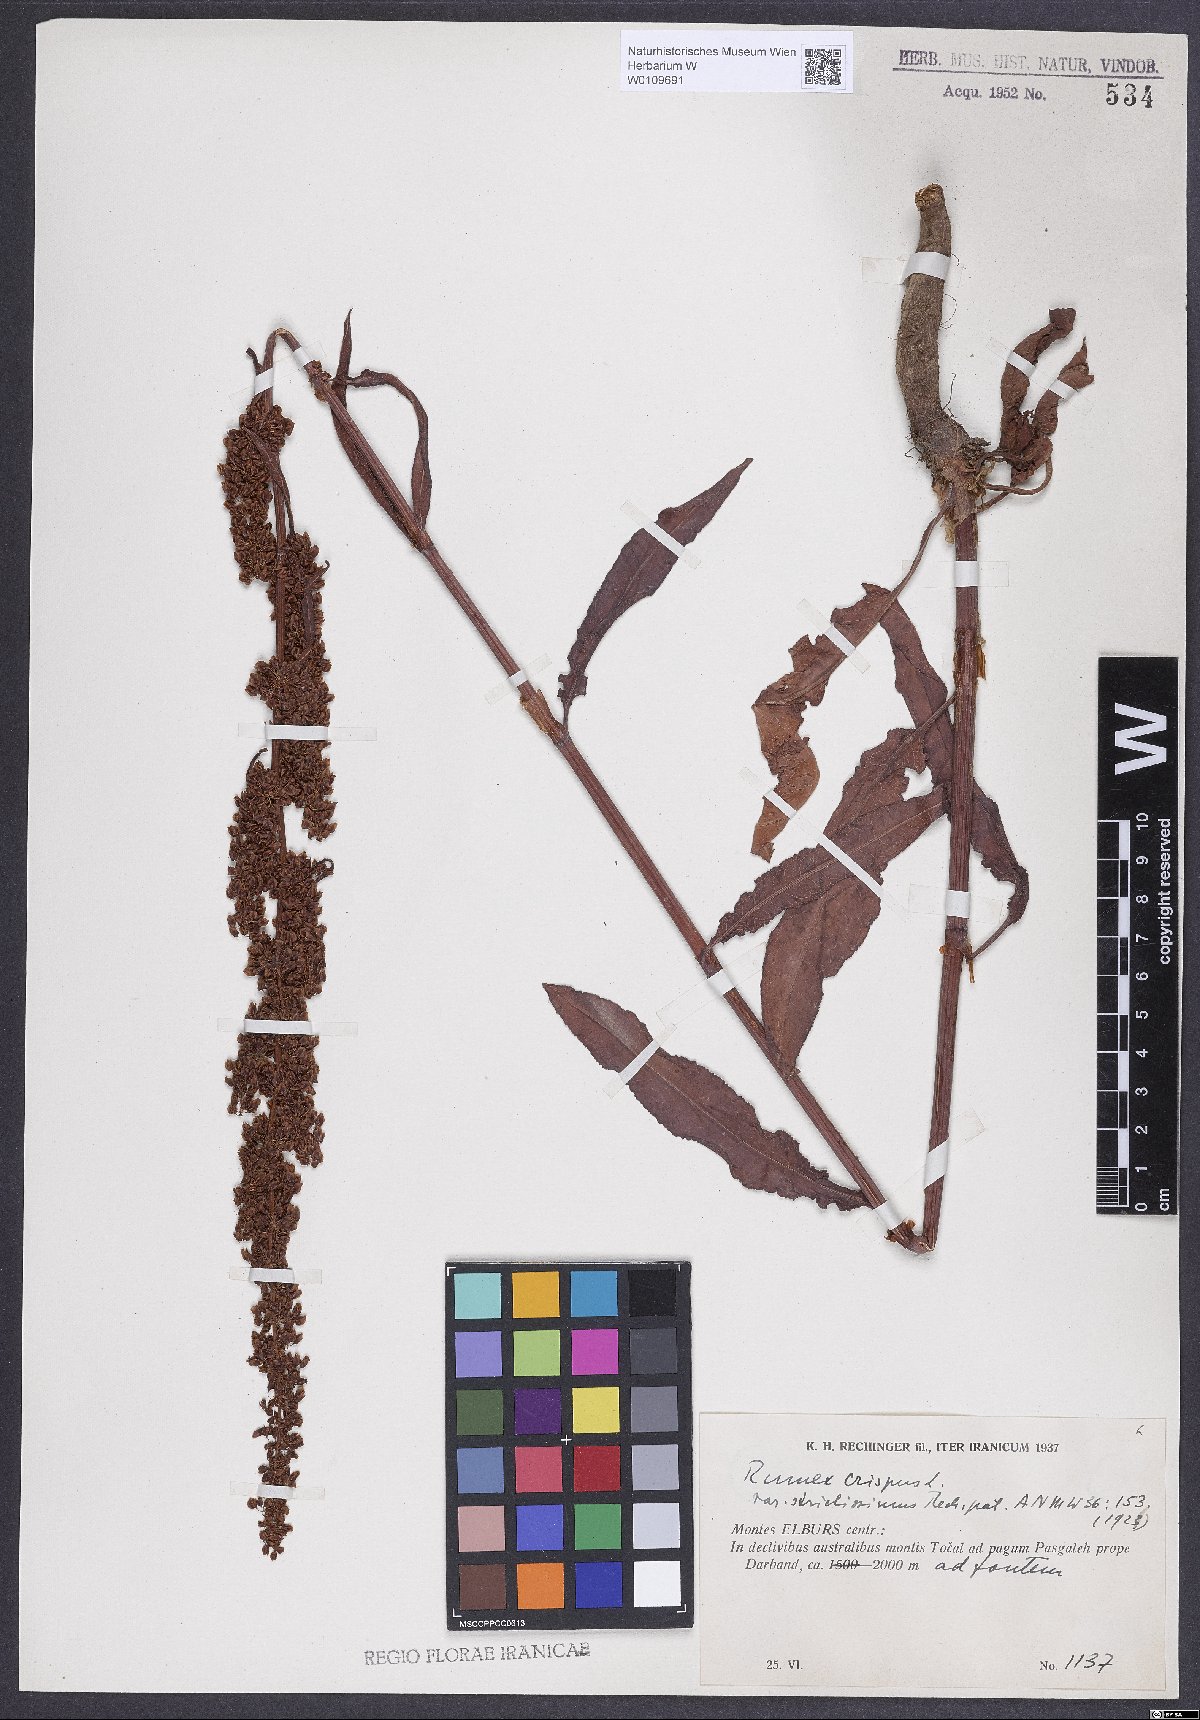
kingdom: Plantae
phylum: Tracheophyta
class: Magnoliopsida
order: Caryophyllales
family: Polygonaceae
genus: Rumex
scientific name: Rumex crispus
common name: Curled dock
